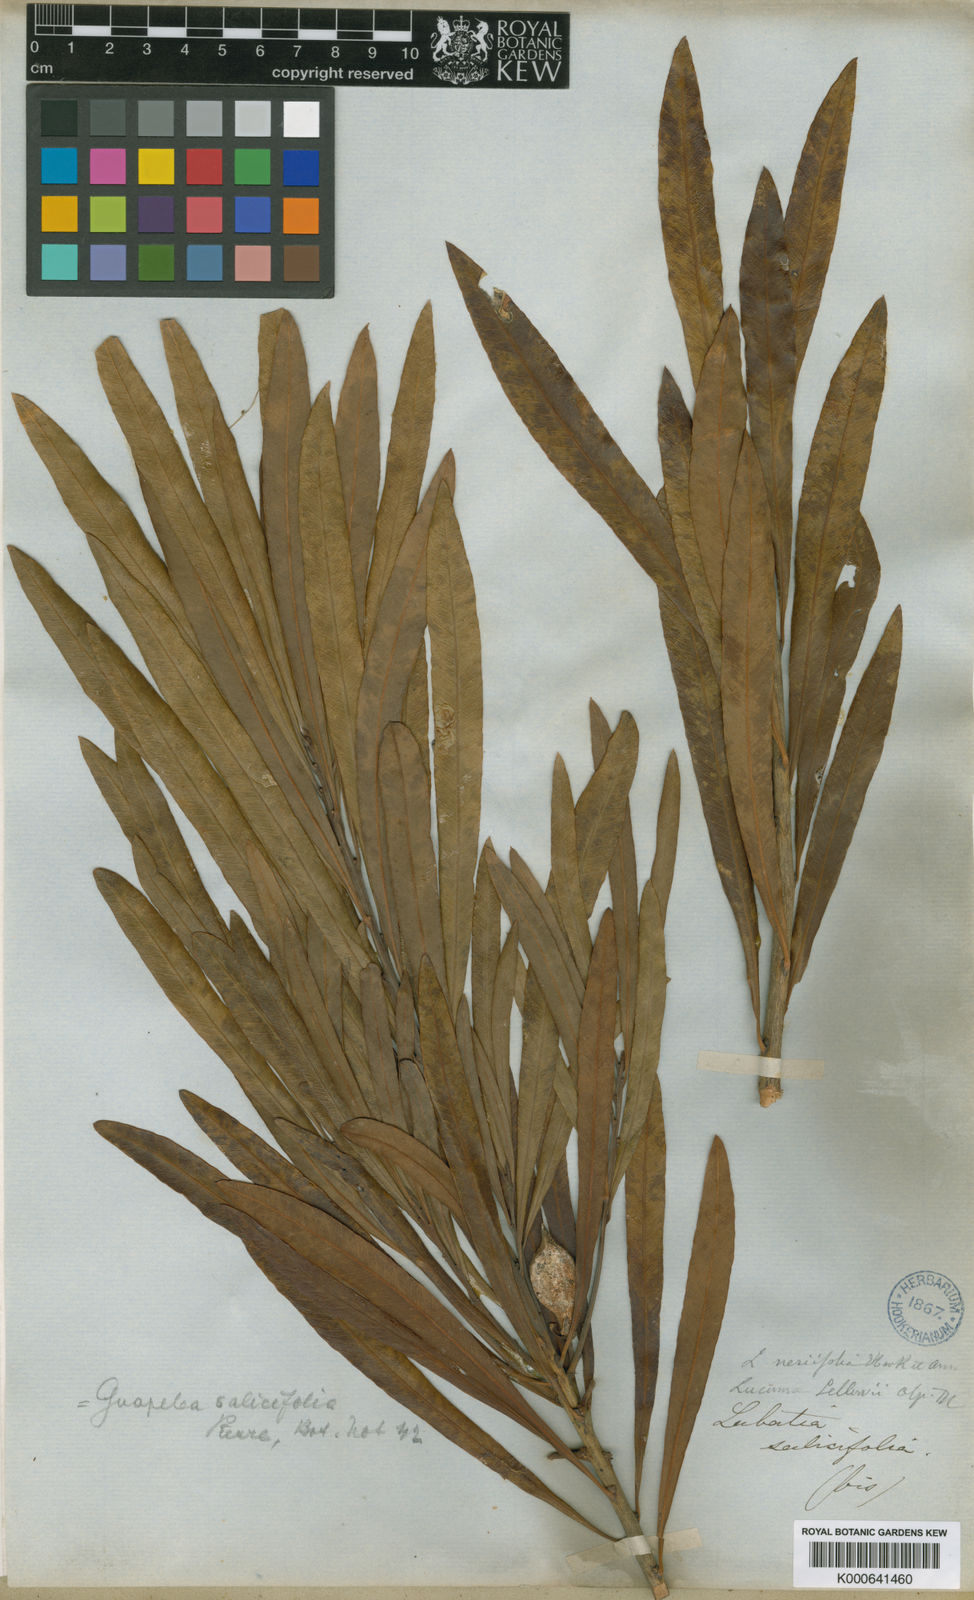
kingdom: Plantae
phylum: Tracheophyta
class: Magnoliopsida
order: Ericales
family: Sapotaceae
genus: Pouteria
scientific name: Pouteria salicifolia
